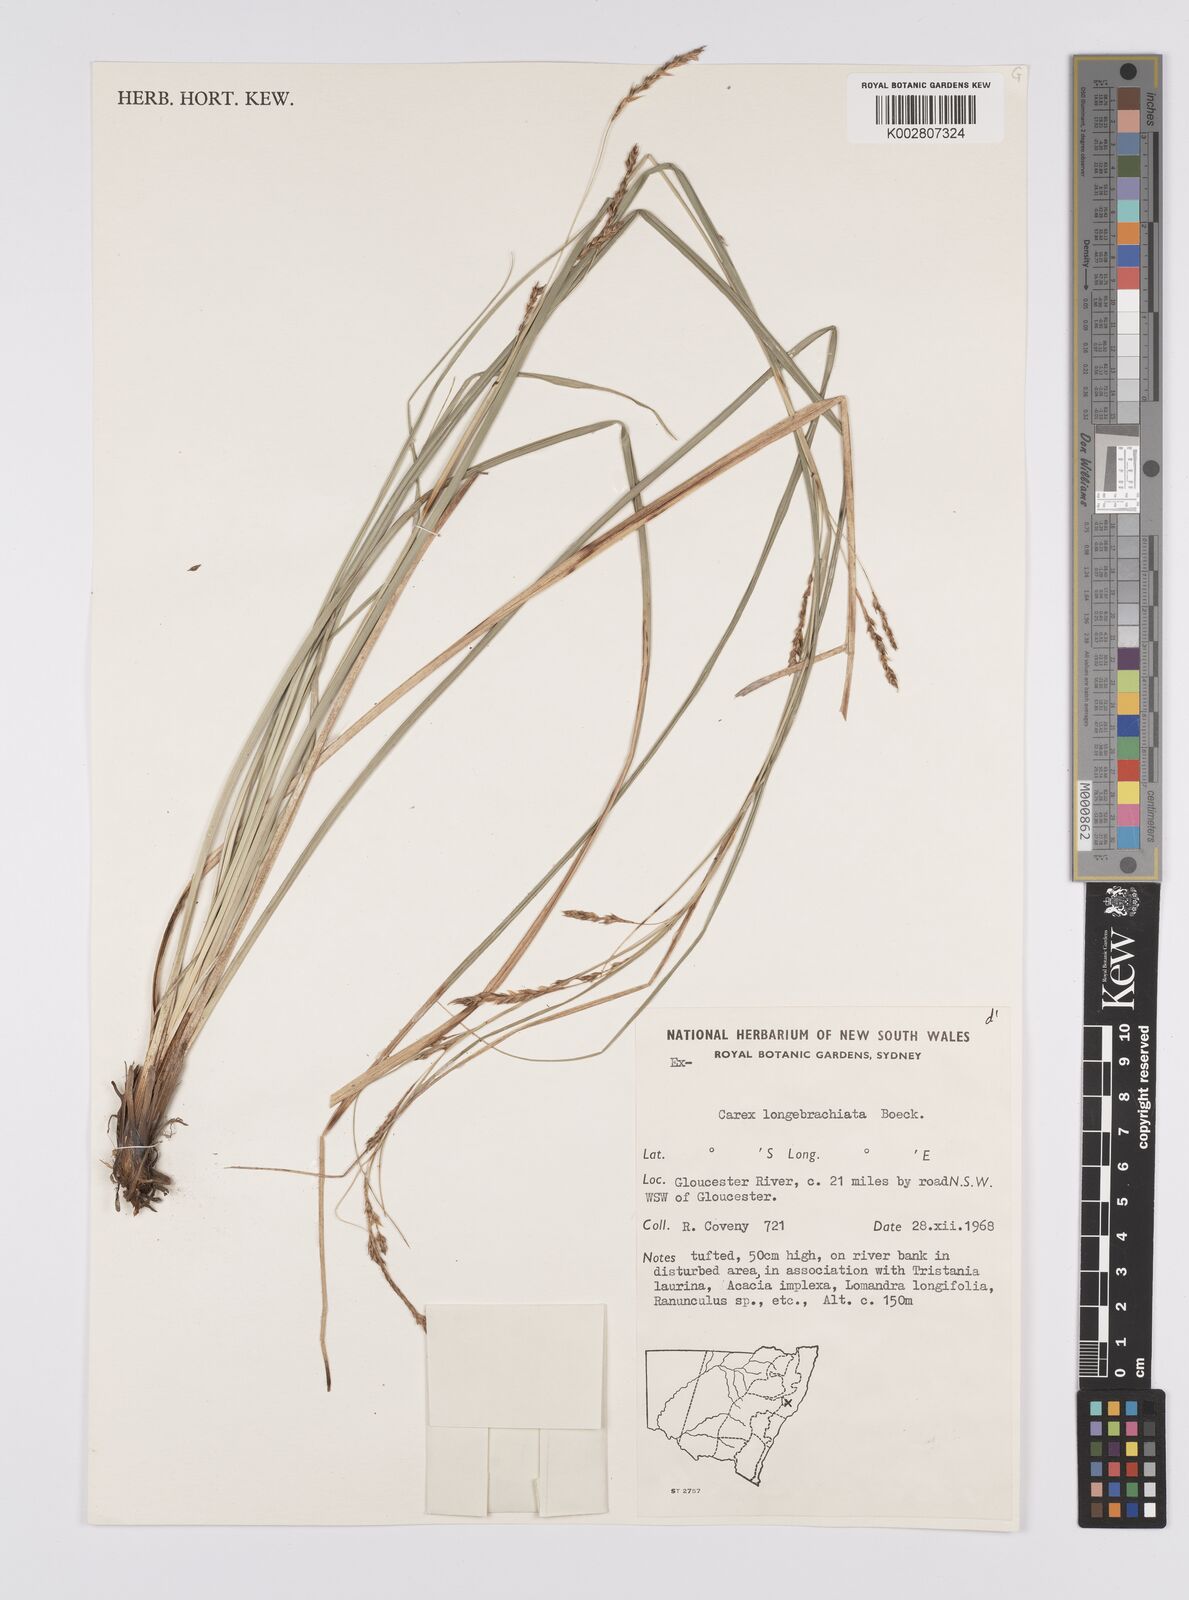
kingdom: Plantae
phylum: Tracheophyta
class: Liliopsida
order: Poales
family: Cyperaceae
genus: Carex
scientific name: Carex pseudocyperus
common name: Cyperus sedge
